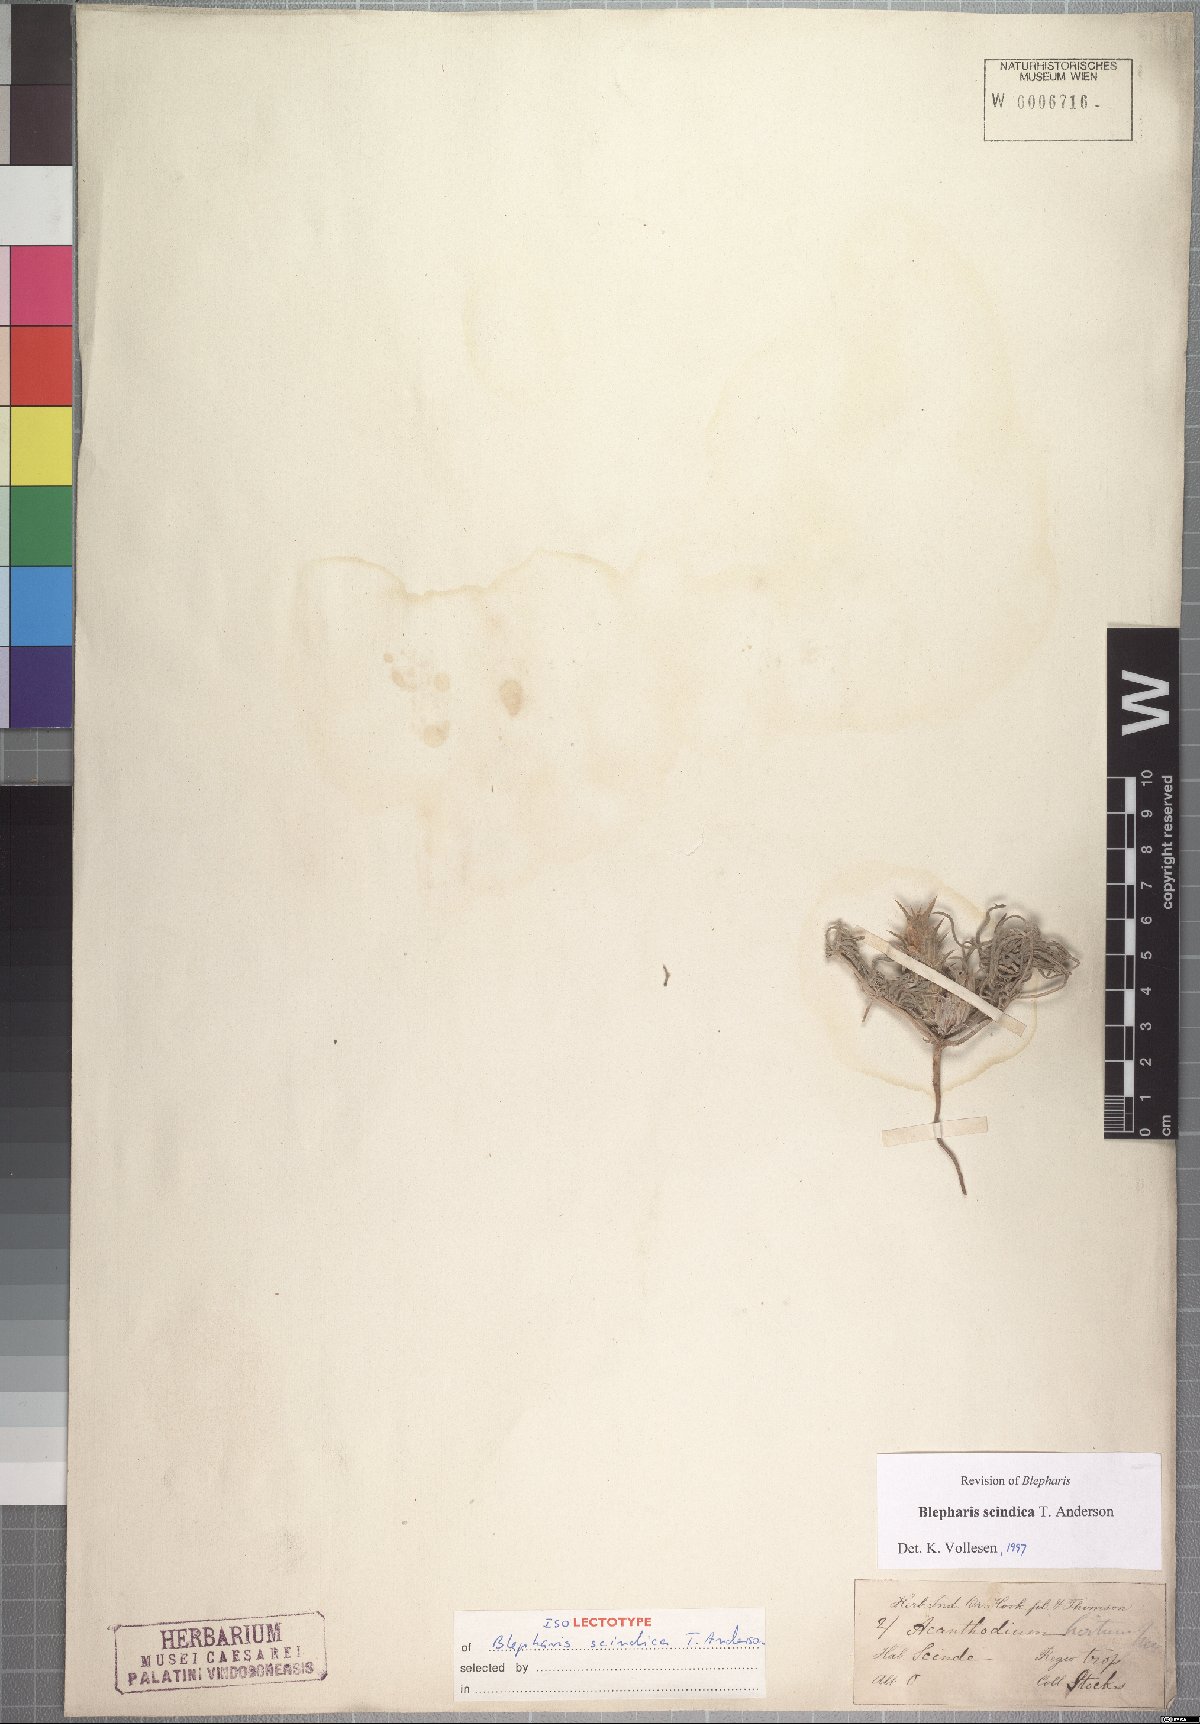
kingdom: Plantae
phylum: Tracheophyta
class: Magnoliopsida
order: Lamiales
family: Acanthaceae
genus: Blepharis
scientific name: Blepharis scindica
